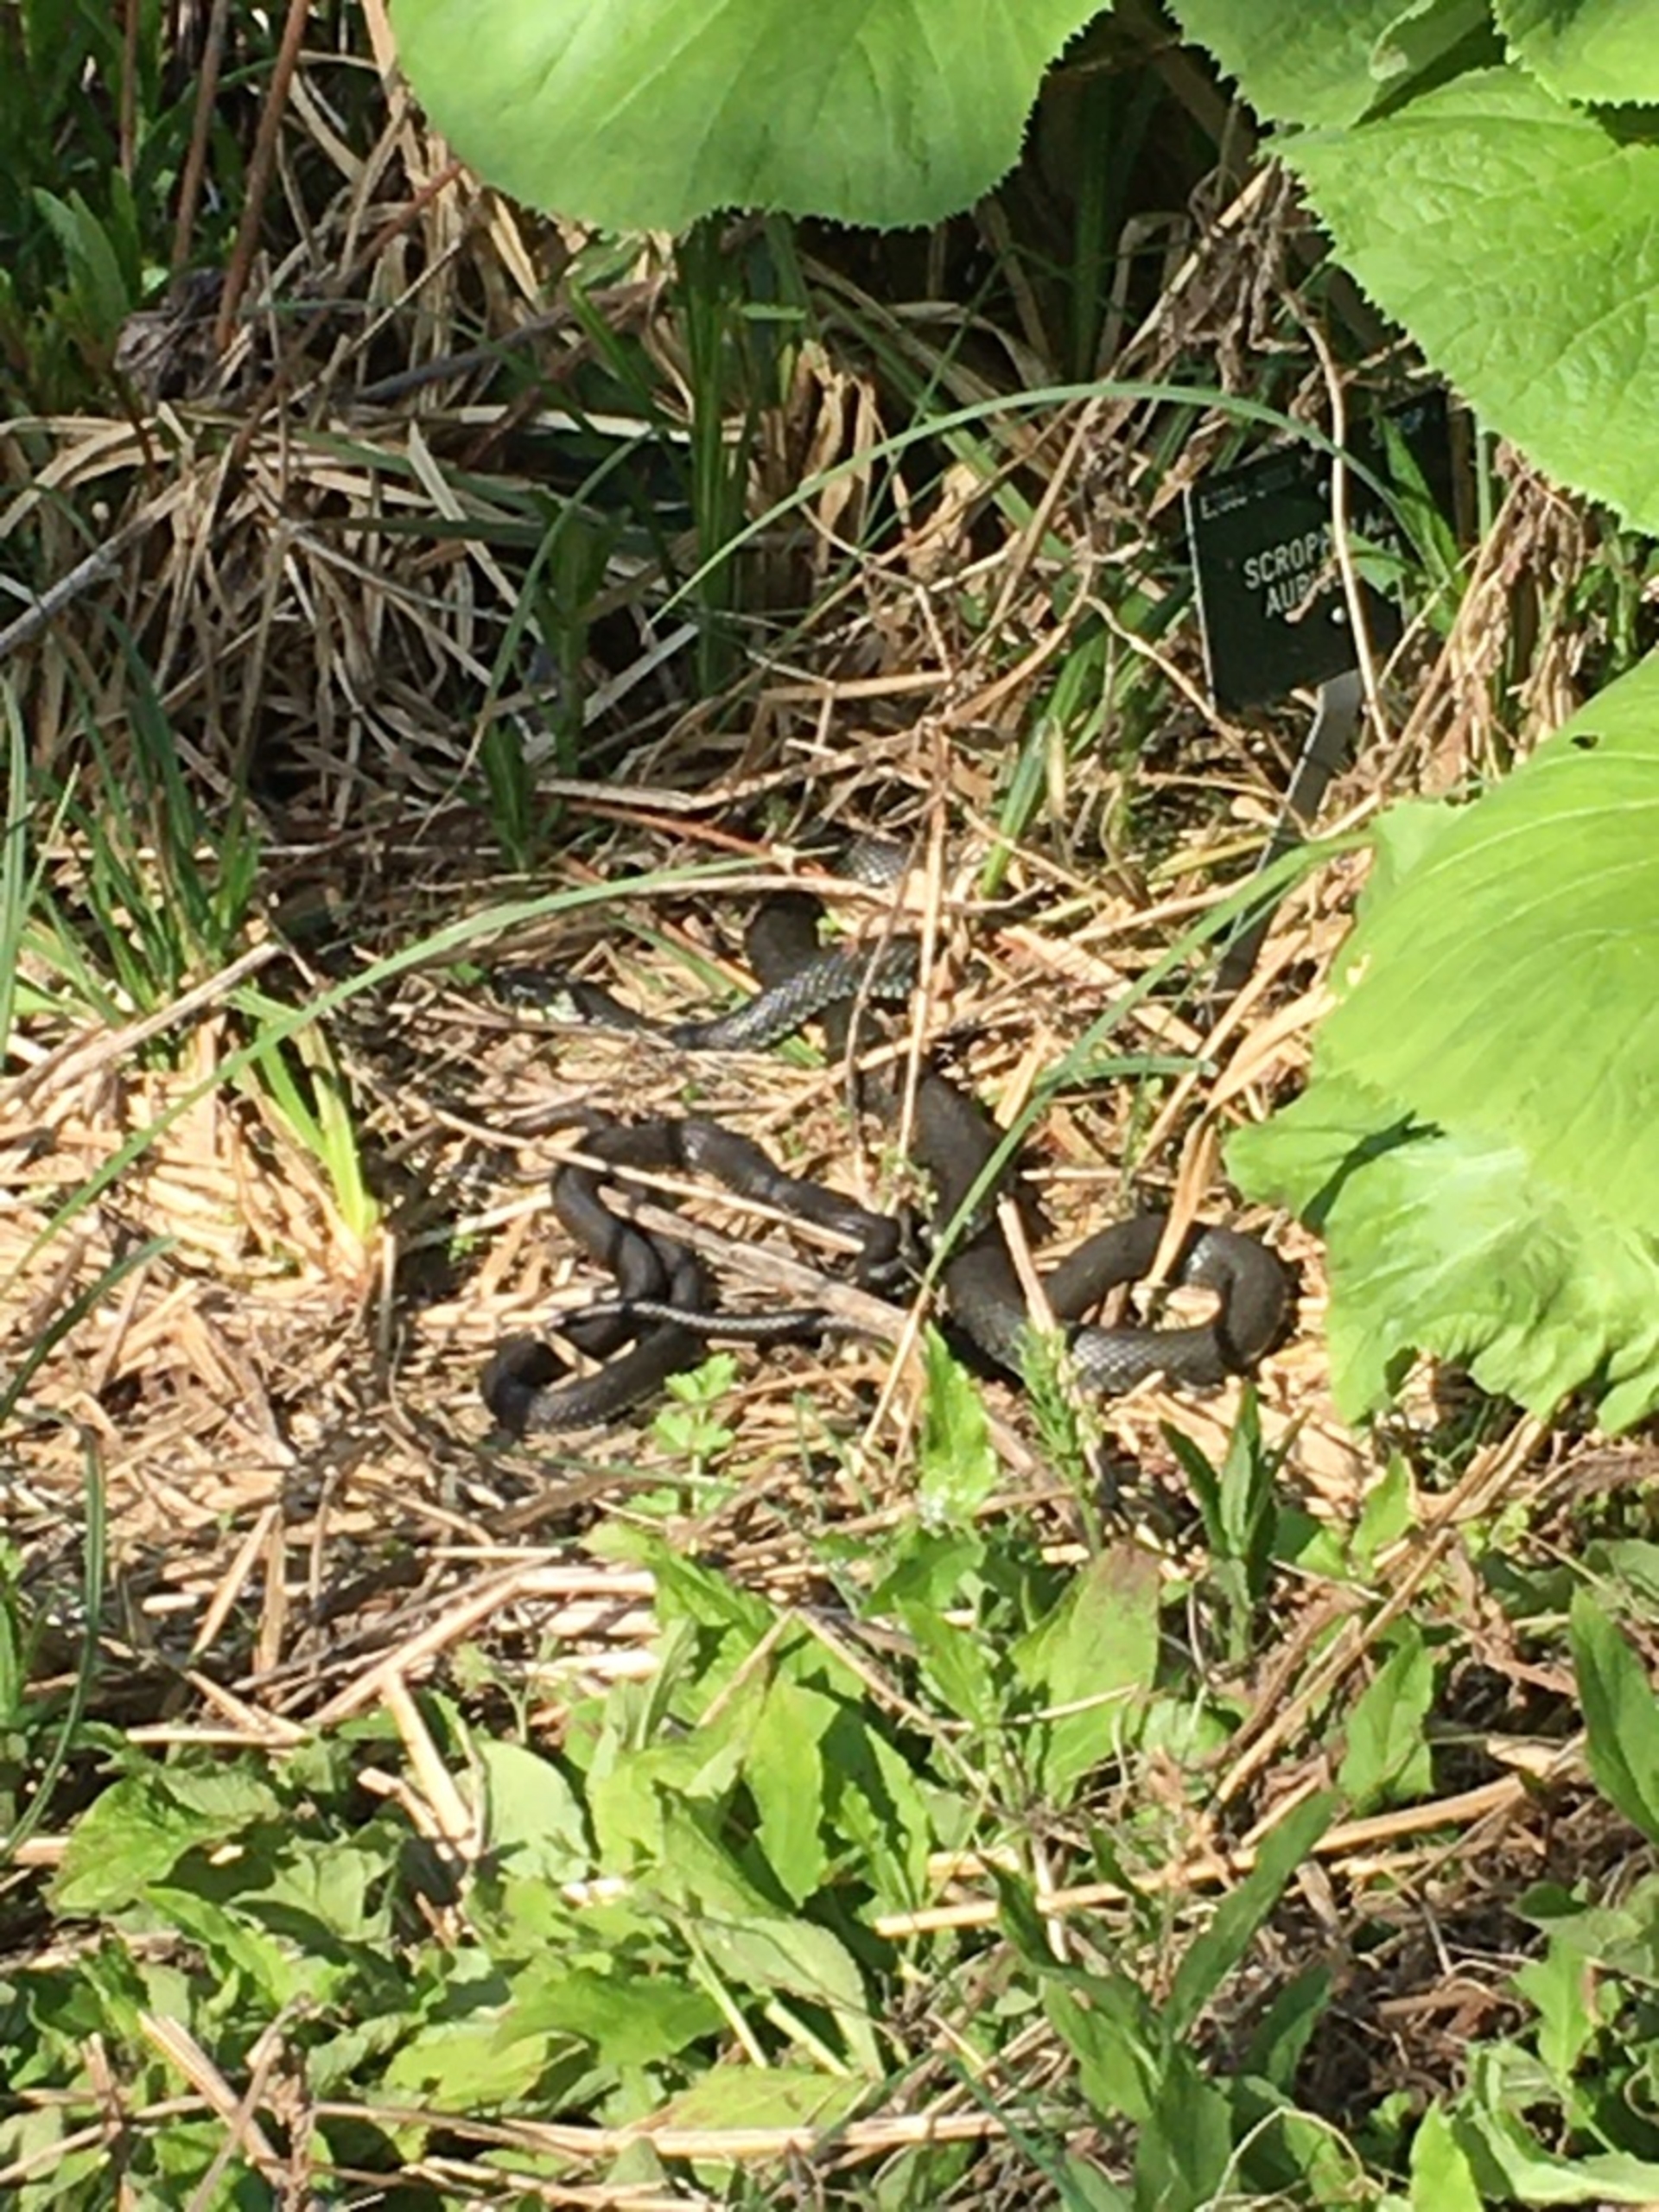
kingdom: Animalia
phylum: Chordata
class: Squamata
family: Colubridae
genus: Natrix
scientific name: Natrix natrix
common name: Snog
